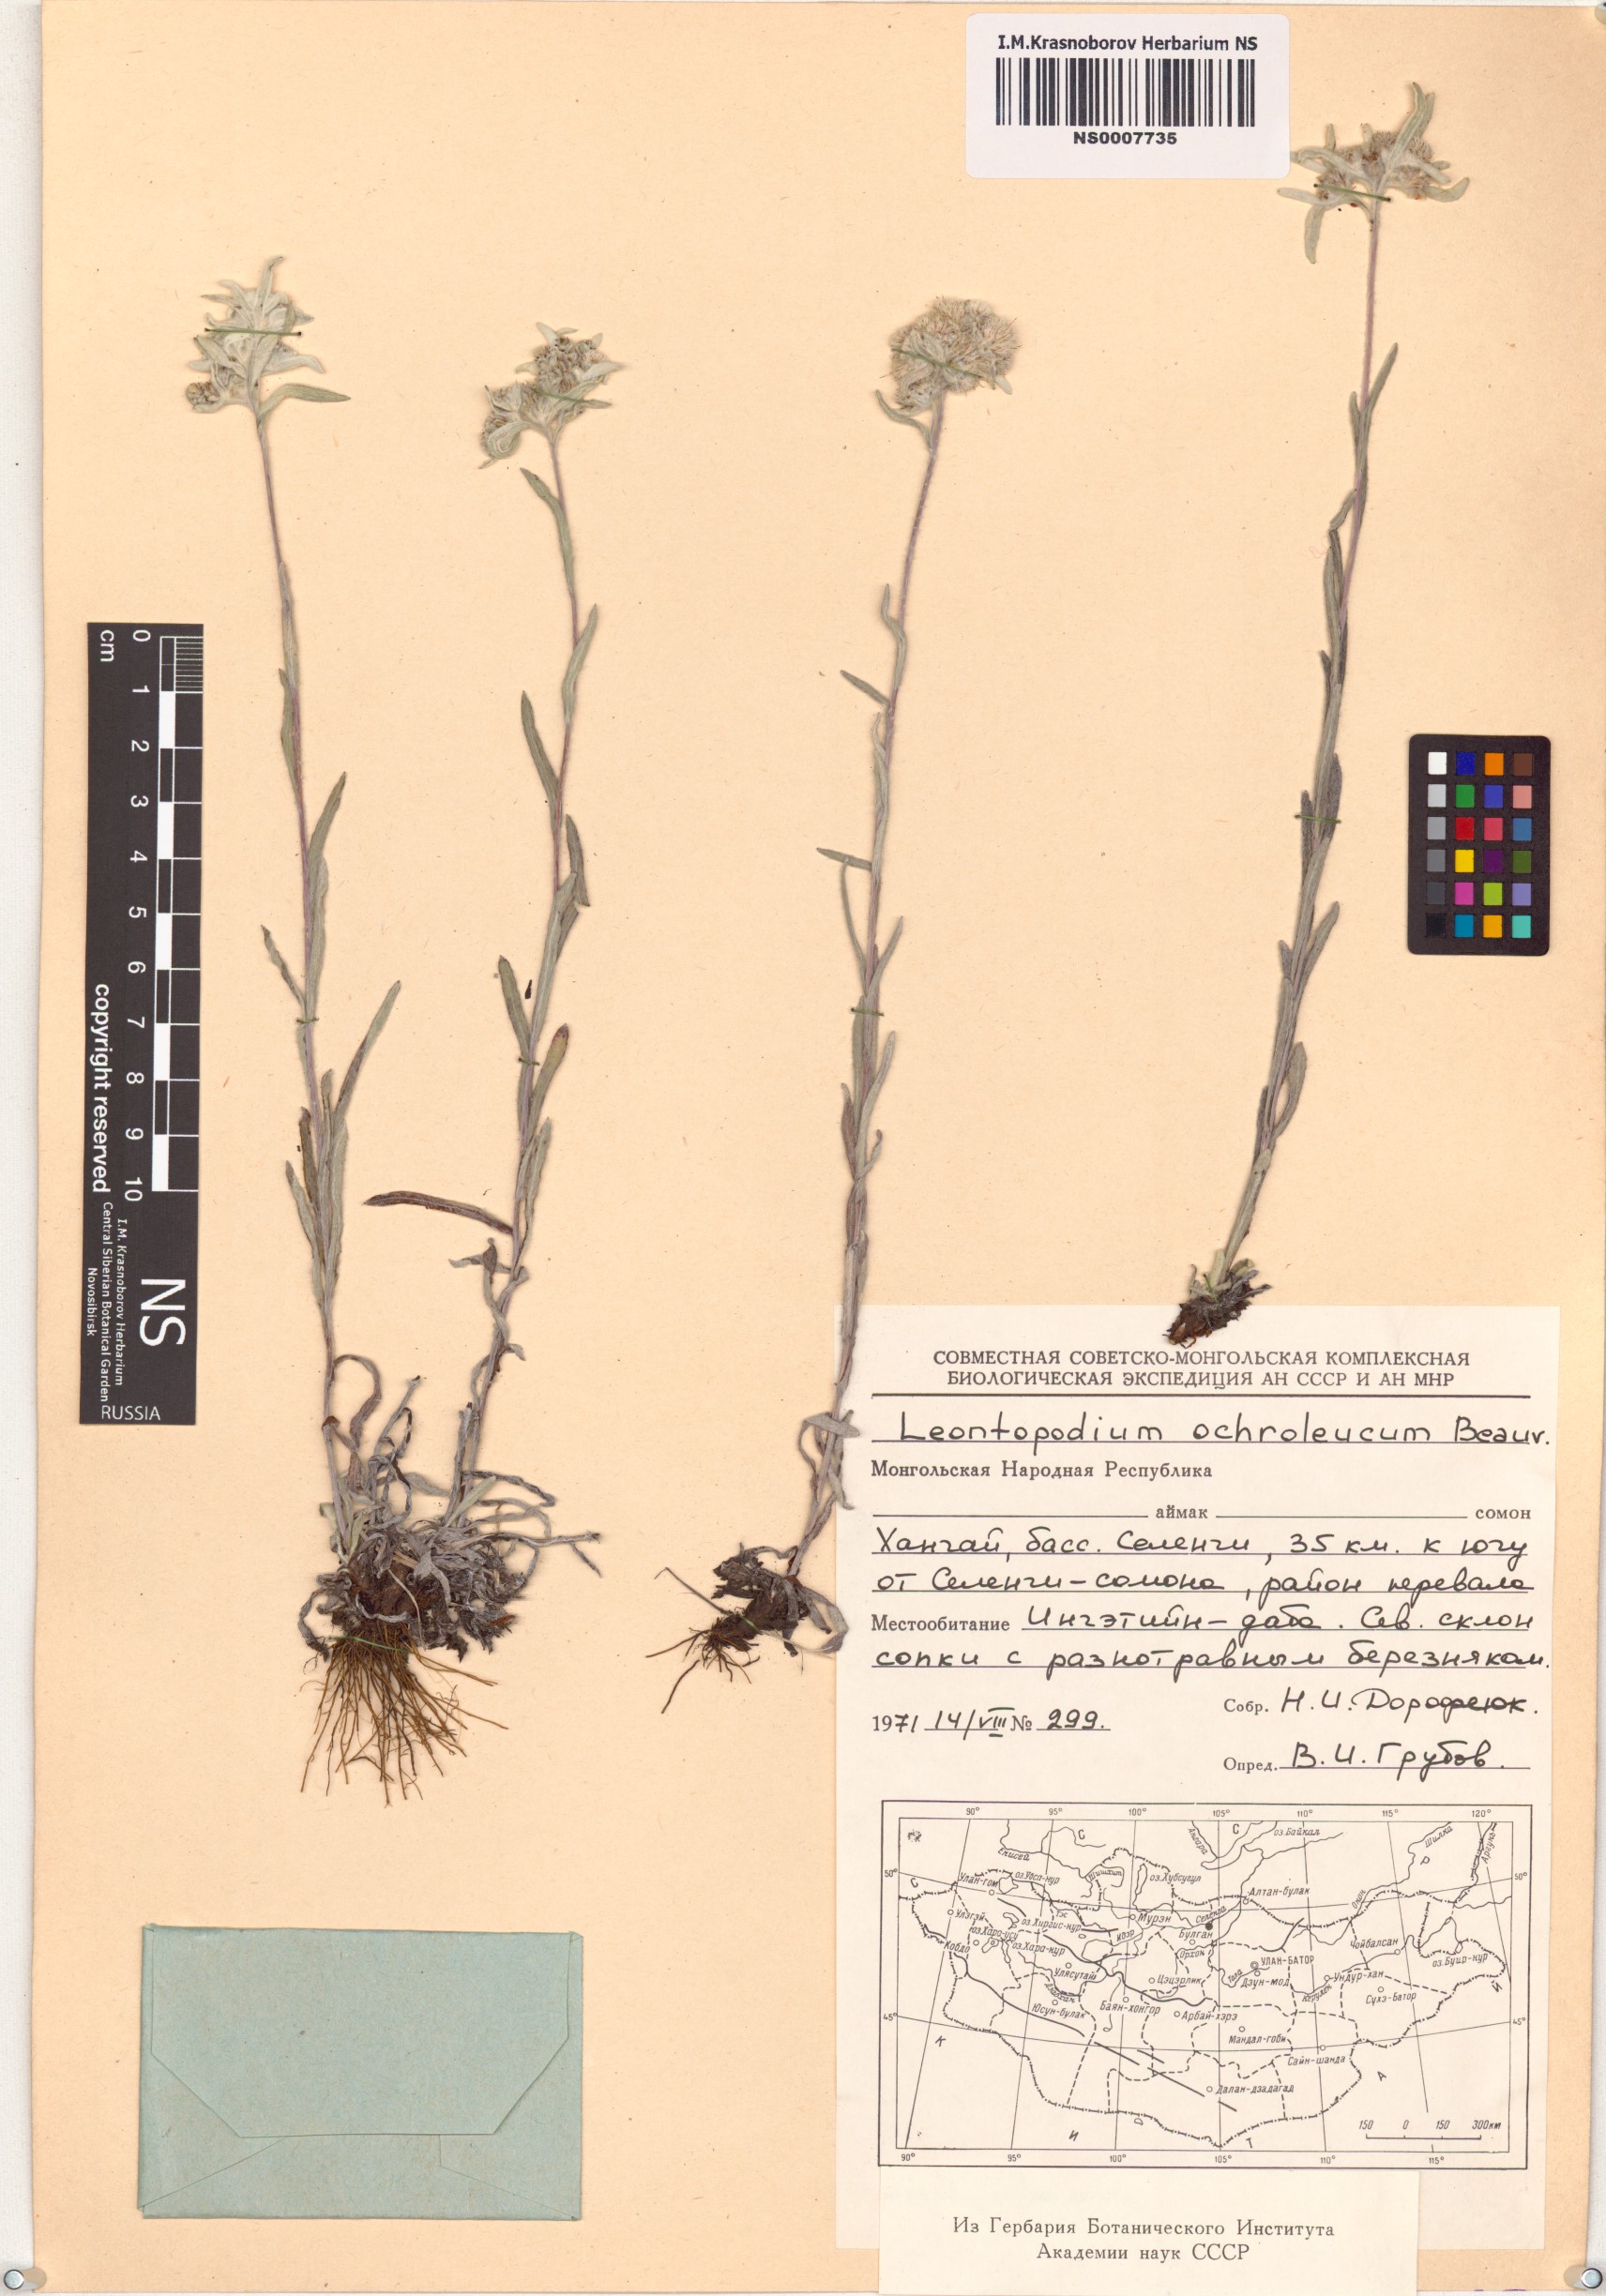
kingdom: Plantae
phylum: Tracheophyta
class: Magnoliopsida
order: Asterales
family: Asteraceae
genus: Leontopodium
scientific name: Leontopodium leontopodinum
